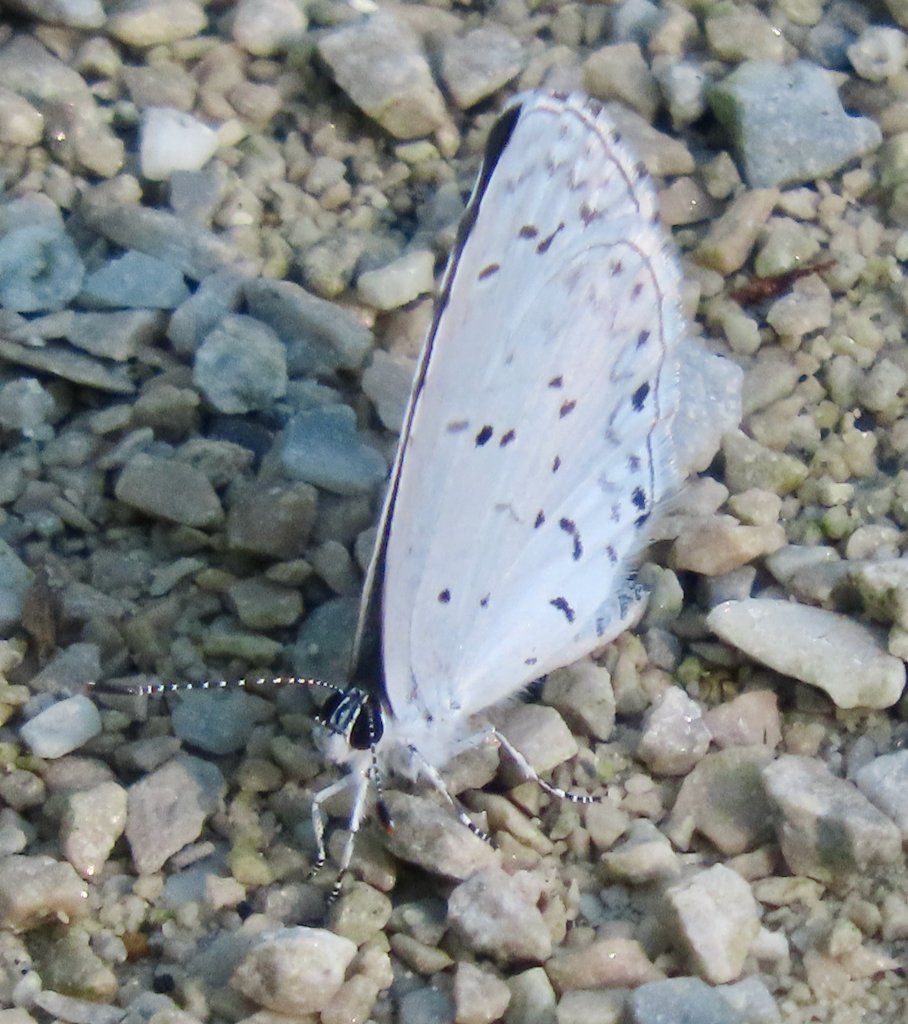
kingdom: Animalia
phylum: Arthropoda
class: Insecta
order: Lepidoptera
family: Lycaenidae
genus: Cyaniris
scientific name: Cyaniris neglecta
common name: Summer Azure
